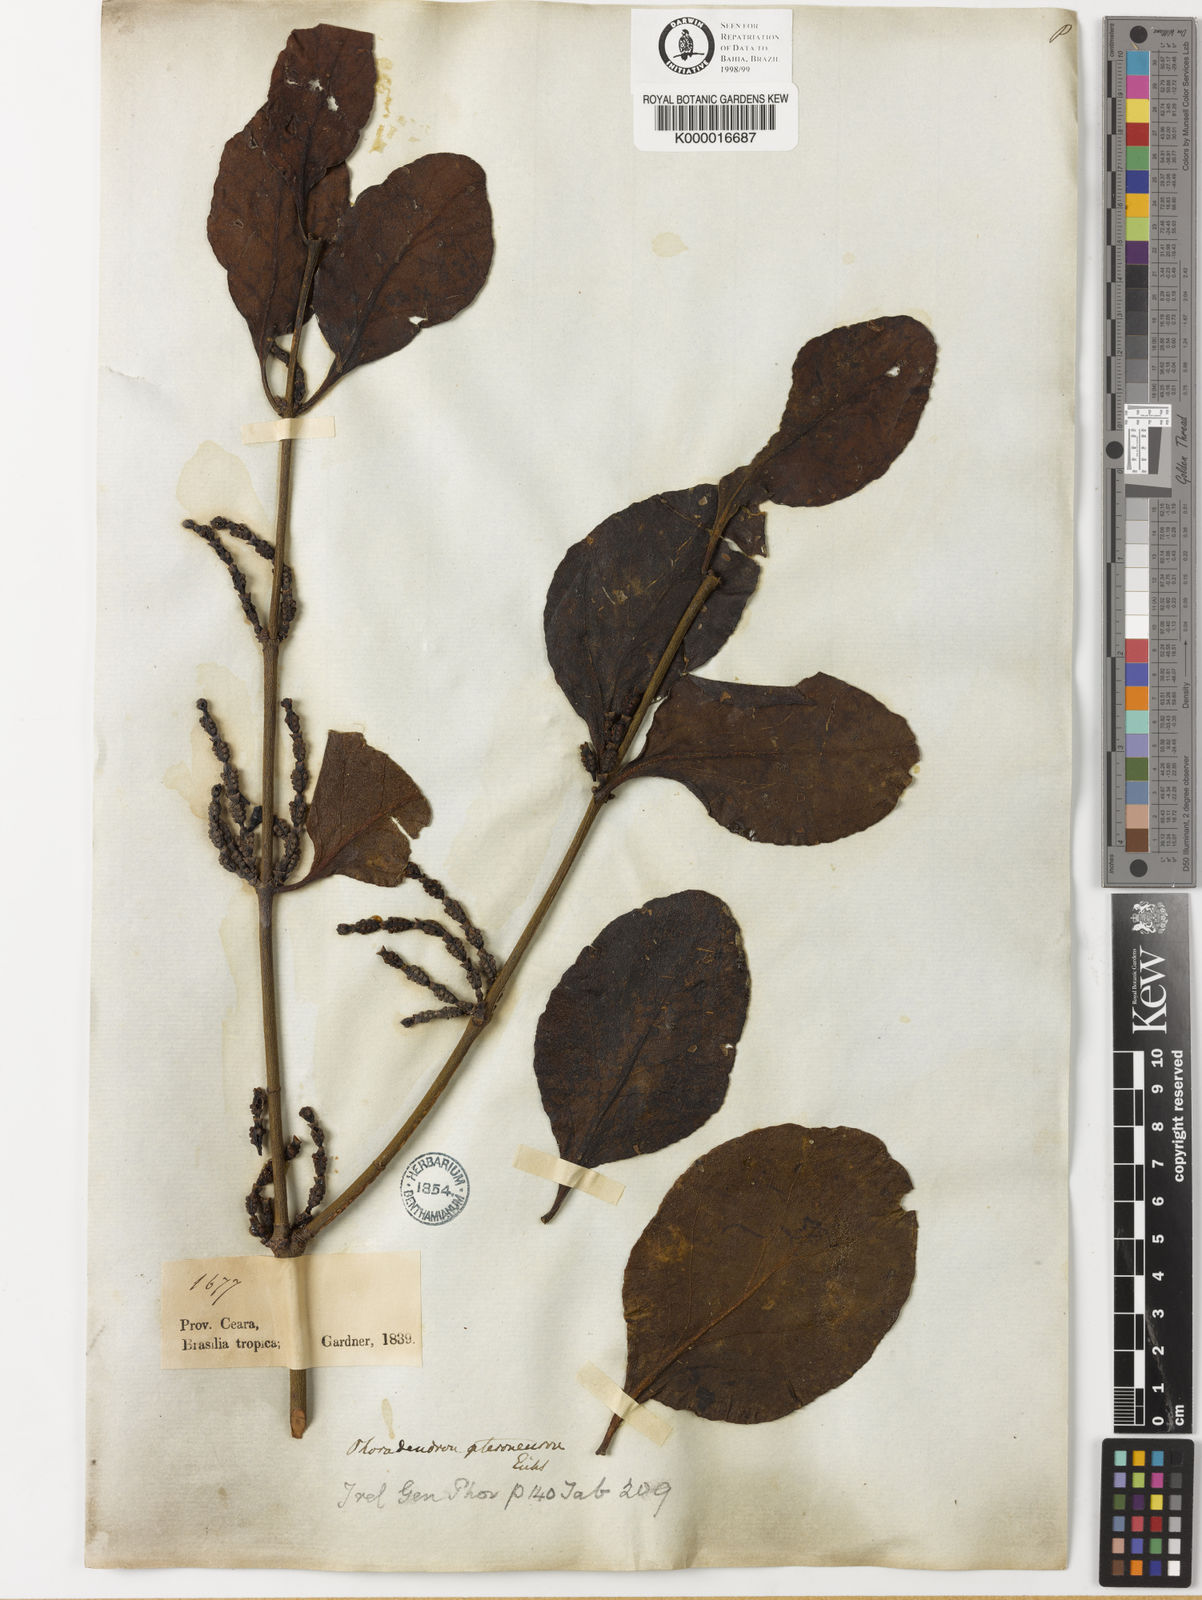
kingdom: Plantae
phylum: Tracheophyta
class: Magnoliopsida
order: Santalales
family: Viscaceae
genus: Phoradendron
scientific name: Phoradendron pteroneuron
